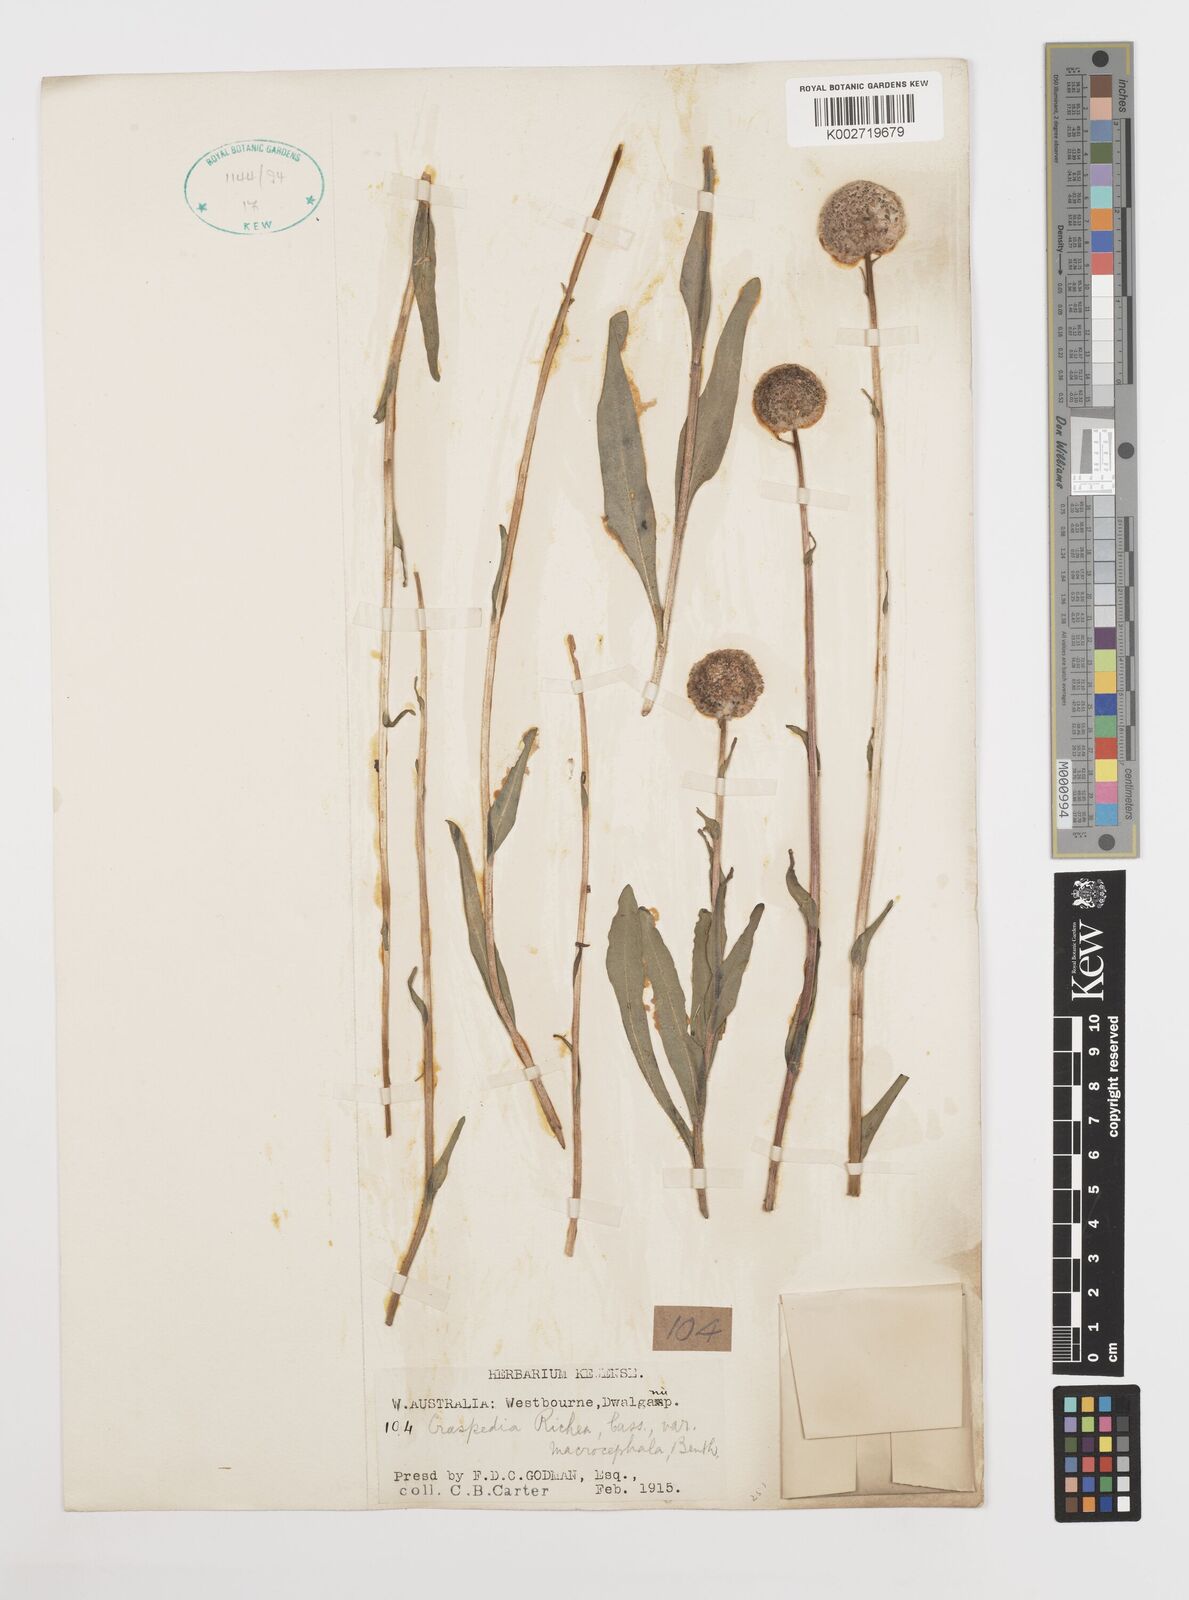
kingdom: Plantae
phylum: Tracheophyta
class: Magnoliopsida
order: Asterales
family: Asteraceae
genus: Craspedia
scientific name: Craspedia glauca
